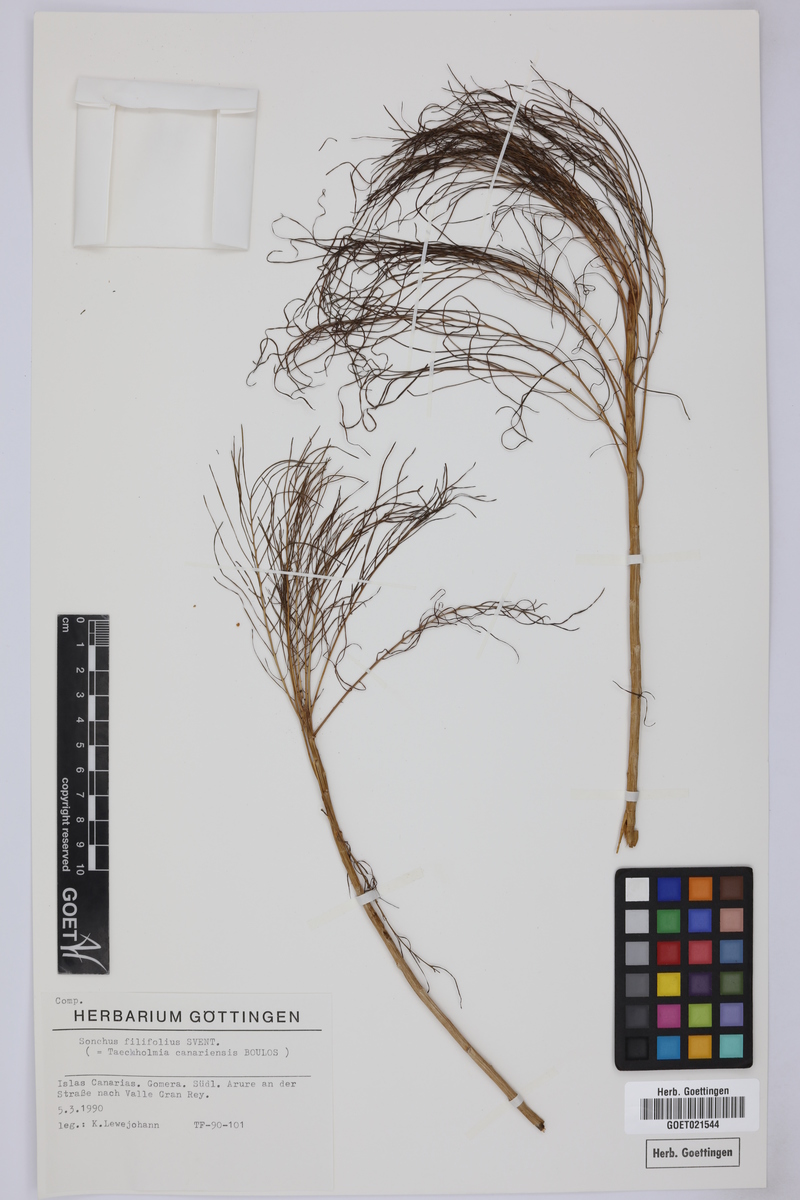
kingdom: Plantae
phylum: Tracheophyta
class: Magnoliopsida
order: Asterales
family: Asteraceae
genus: Sonchus
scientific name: Sonchus sventenii
